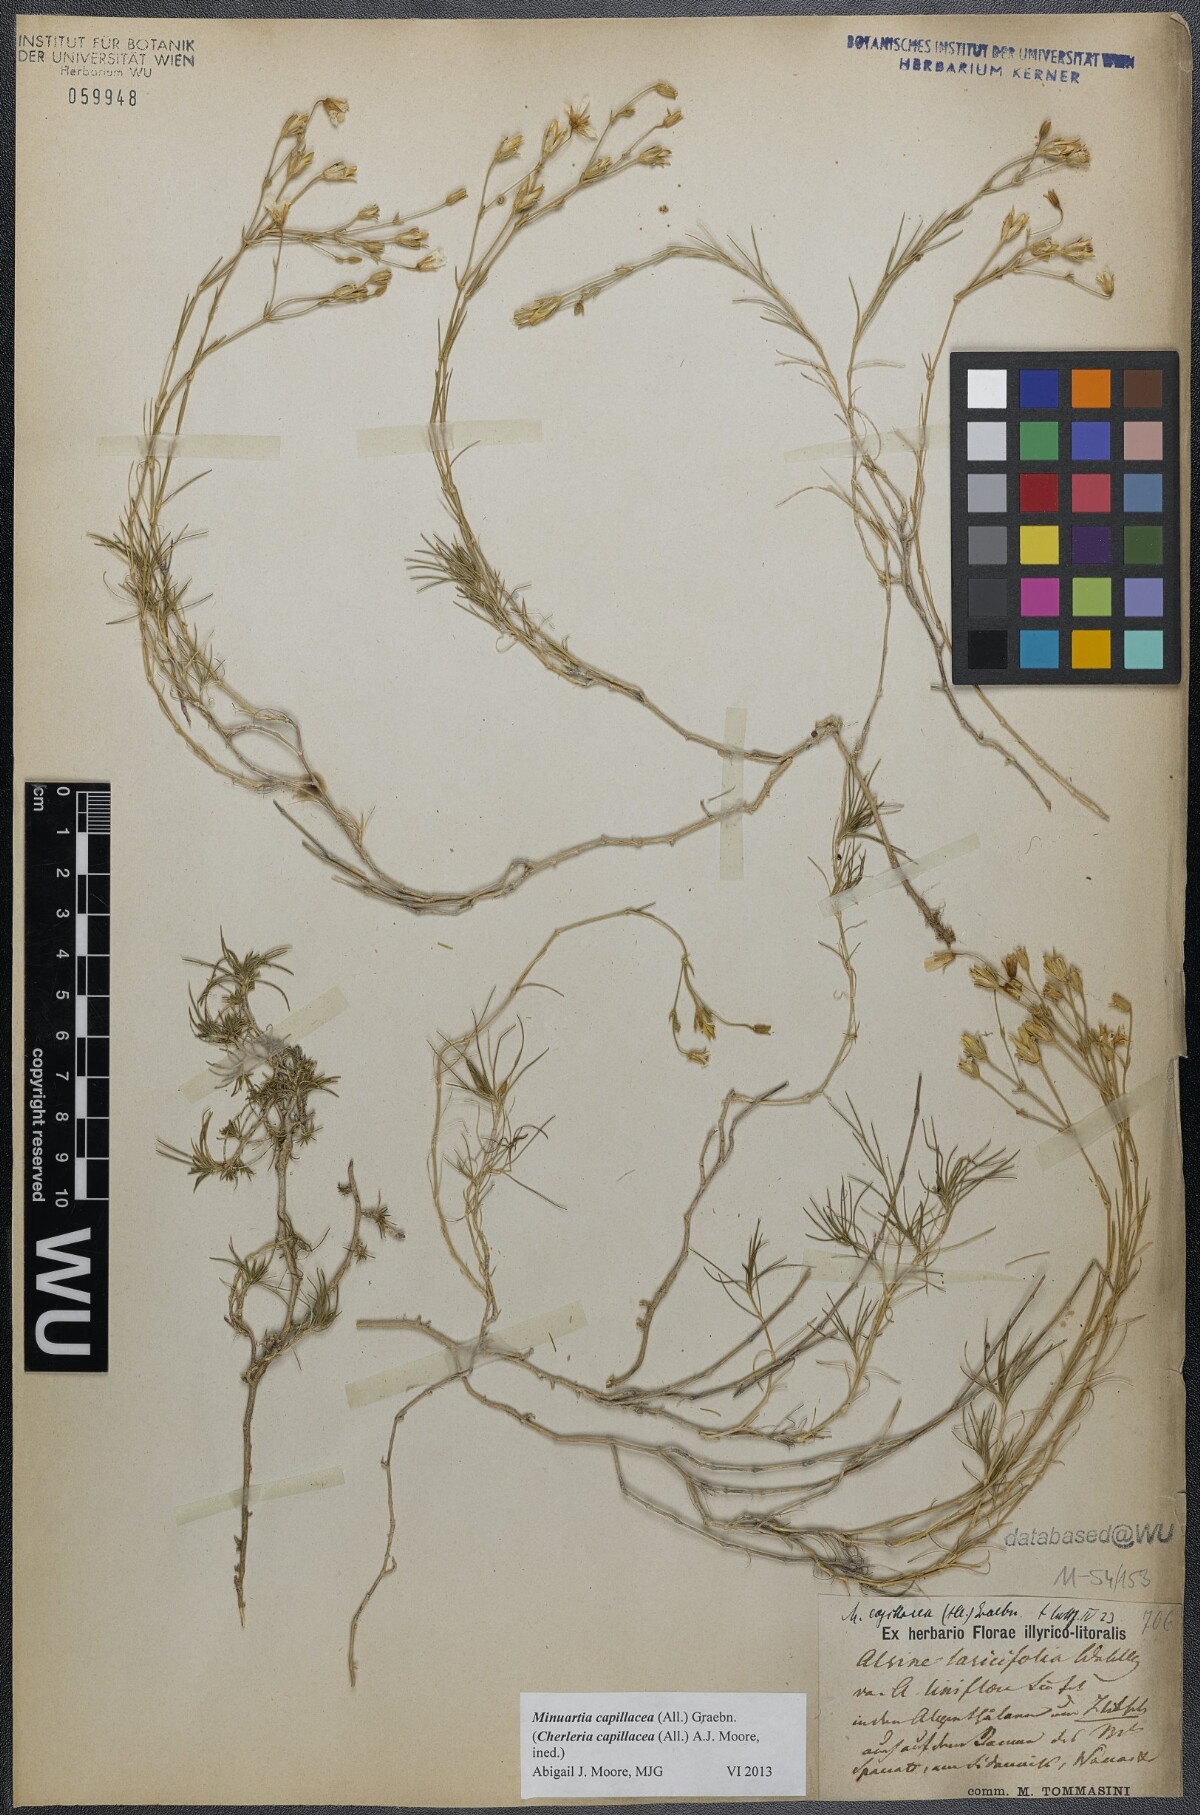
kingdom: Plantae
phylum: Tracheophyta
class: Magnoliopsida
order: Caryophyllales
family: Caryophyllaceae
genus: Cherleria
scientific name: Cherleria capillacea
